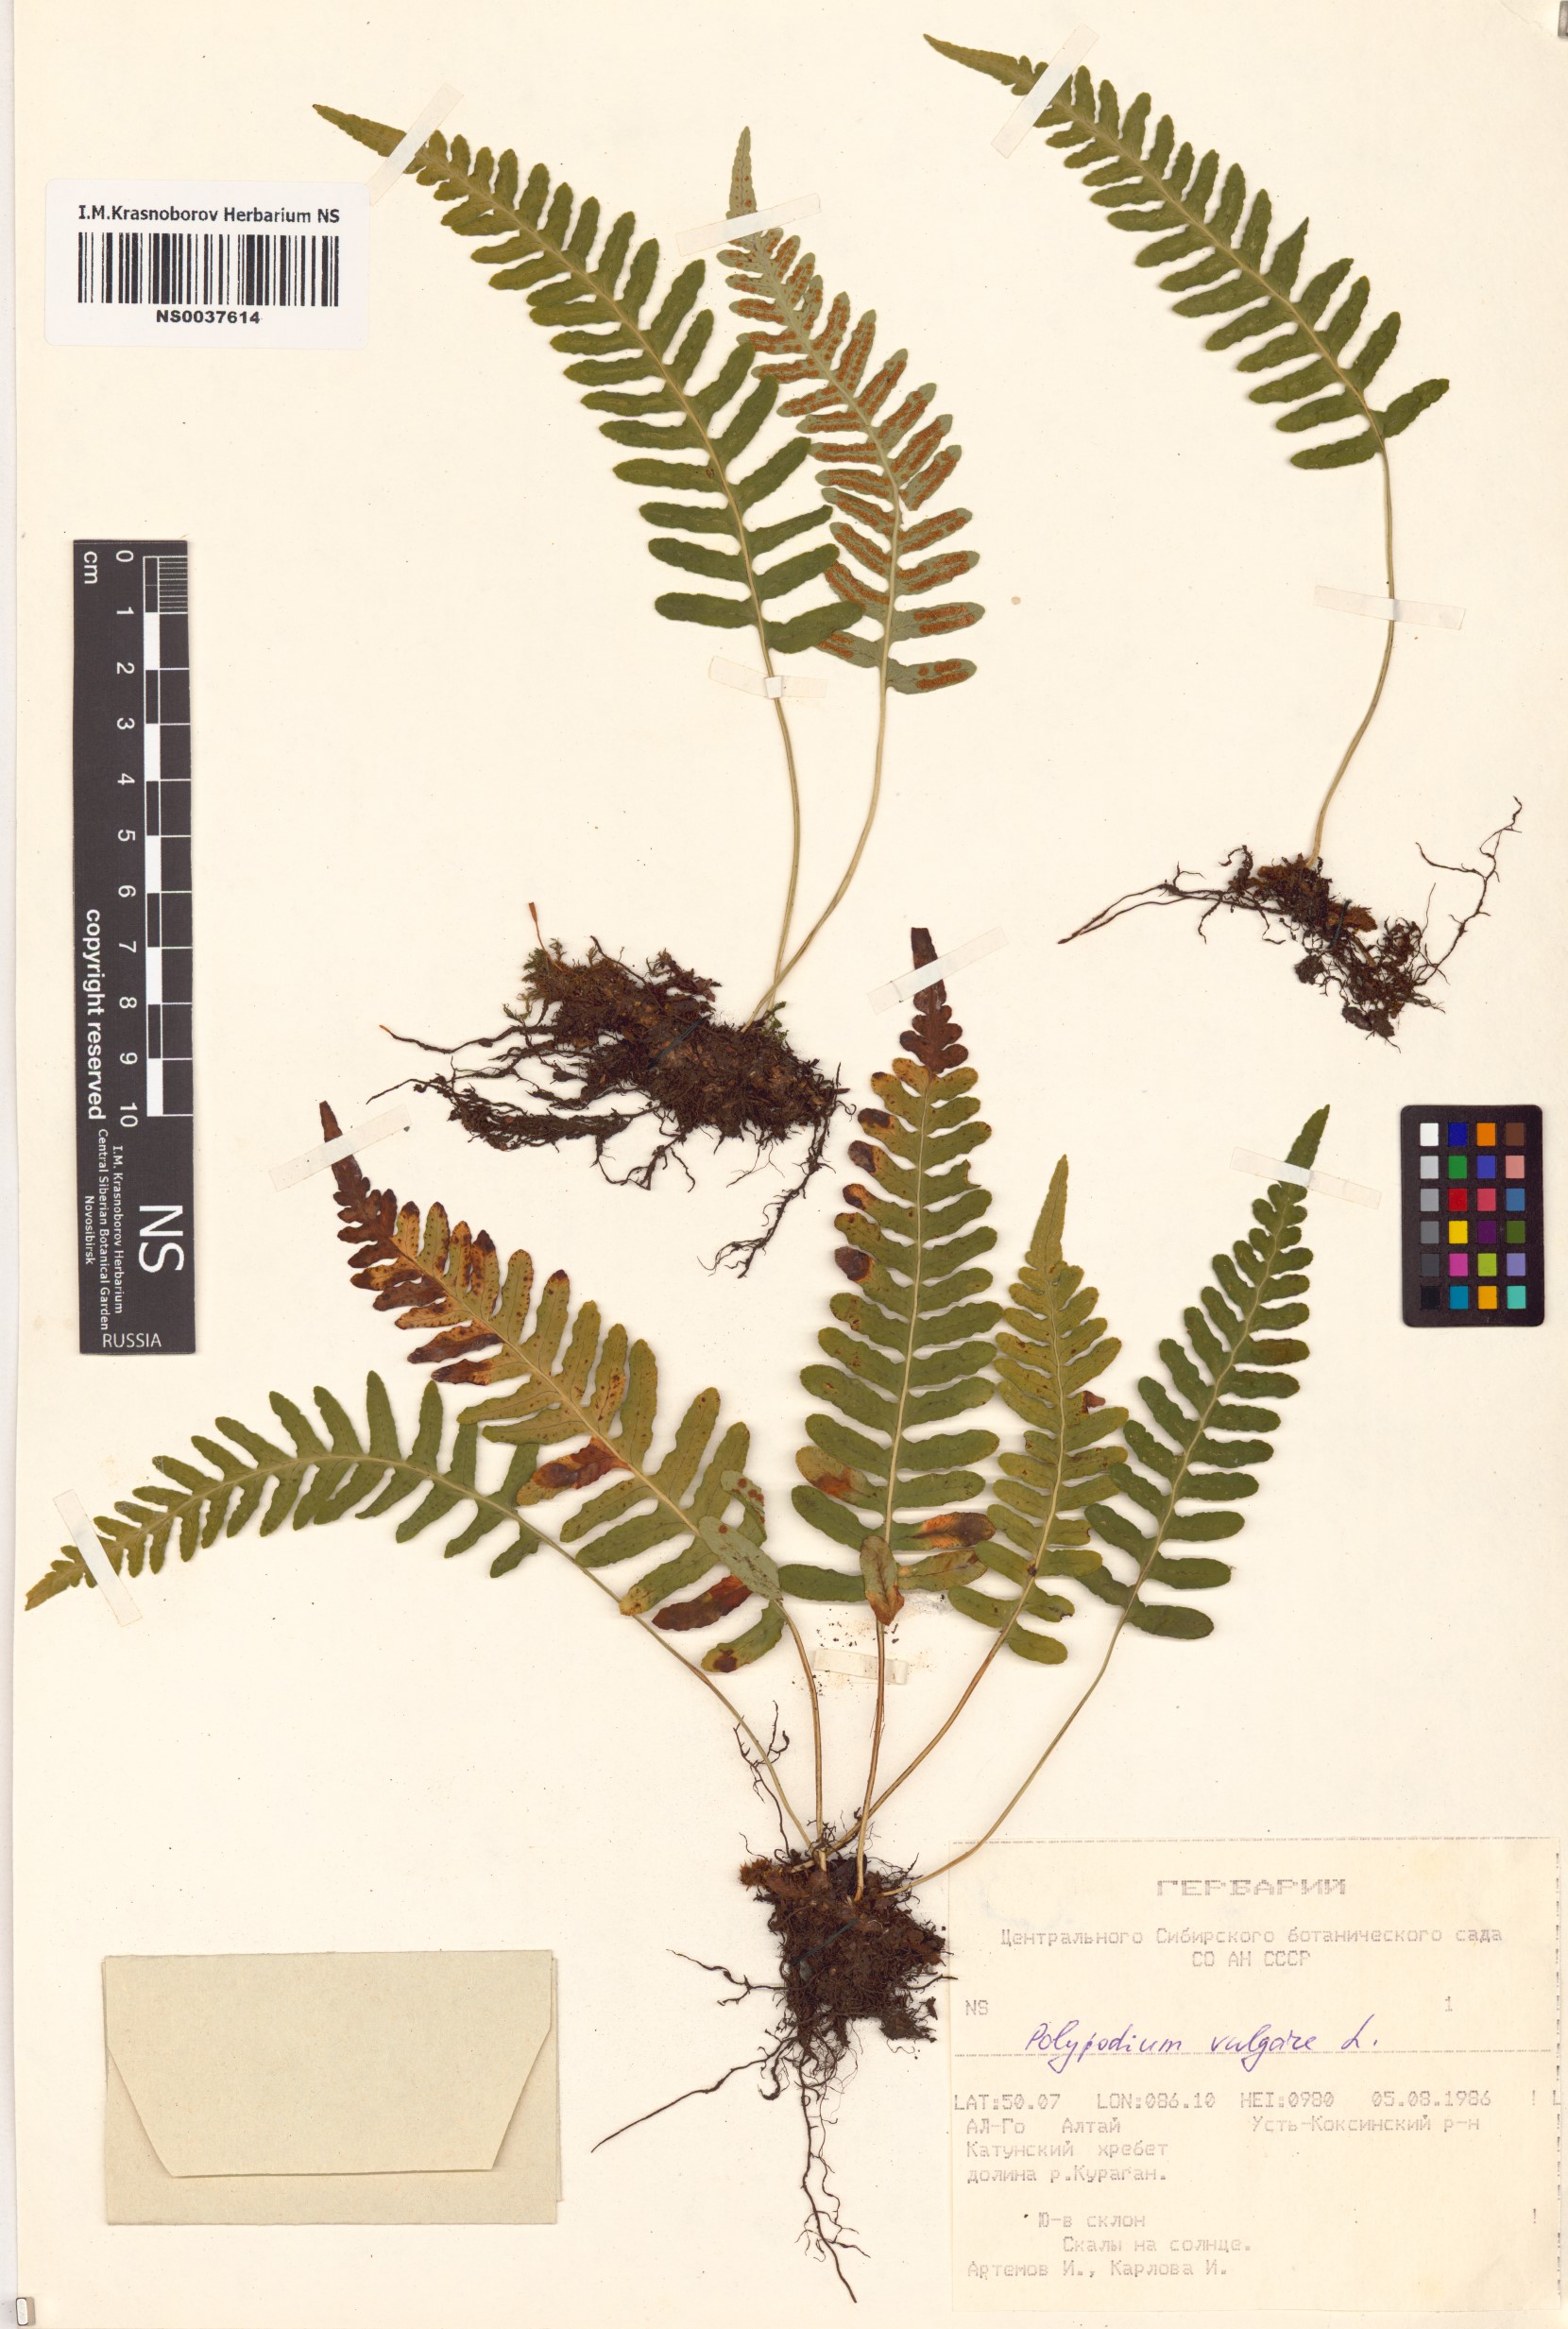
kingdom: Plantae
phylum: Tracheophyta
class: Polypodiopsida
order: Polypodiales
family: Polypodiaceae
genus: Polypodium
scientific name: Polypodium vulgare
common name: Common polypody
